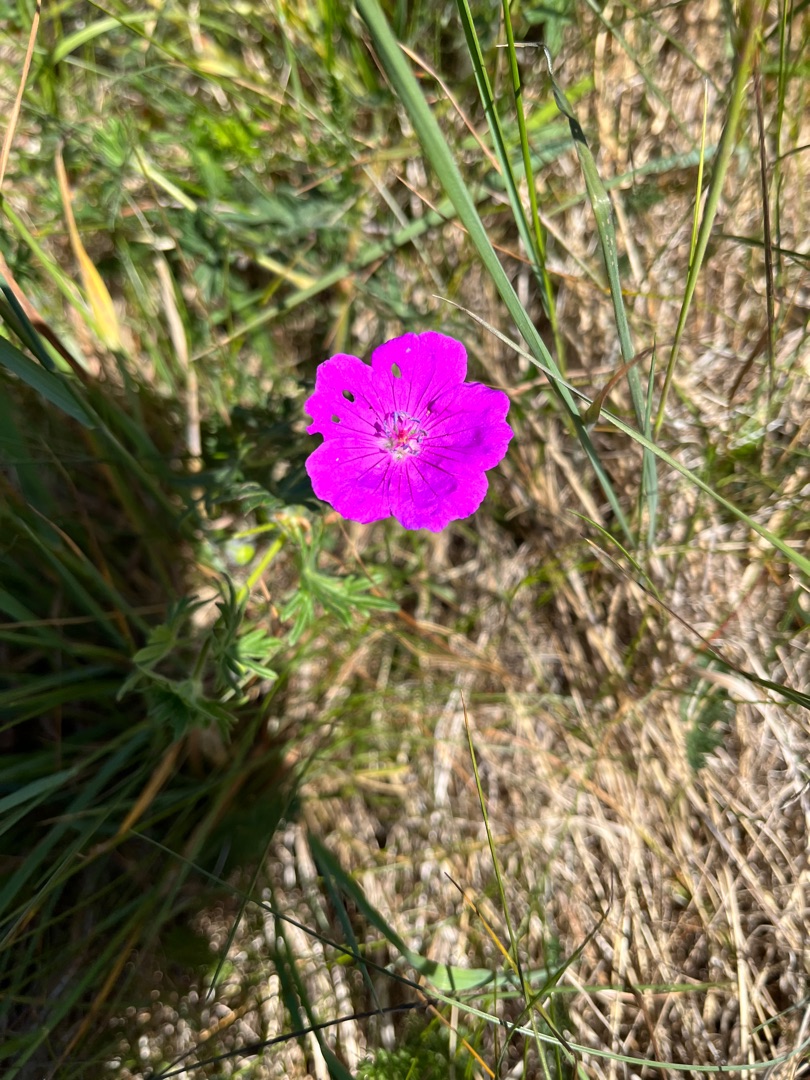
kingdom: Plantae
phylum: Tracheophyta
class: Magnoliopsida
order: Geraniales
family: Geraniaceae
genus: Geranium
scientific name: Geranium sanguineum
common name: Blodrød storkenæb
